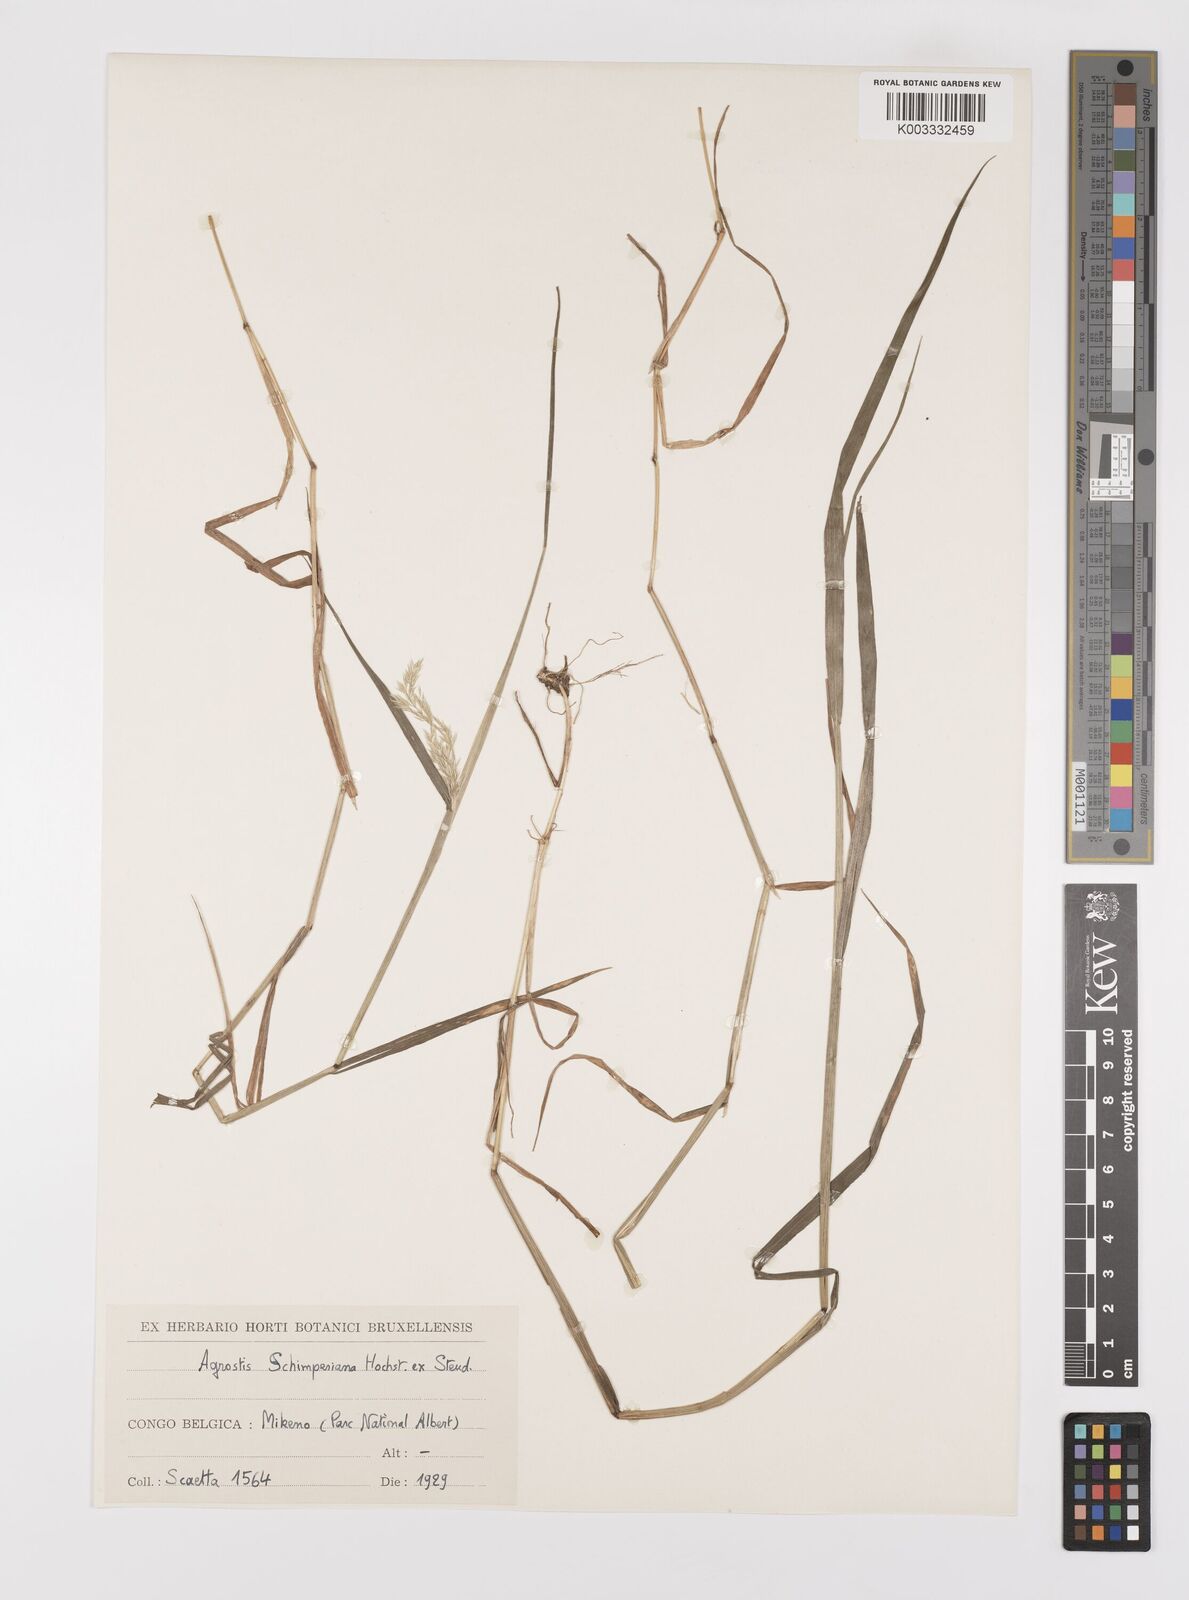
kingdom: Plantae
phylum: Tracheophyta
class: Liliopsida
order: Poales
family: Poaceae
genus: Polypogon
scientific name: Polypogon schimperianus
